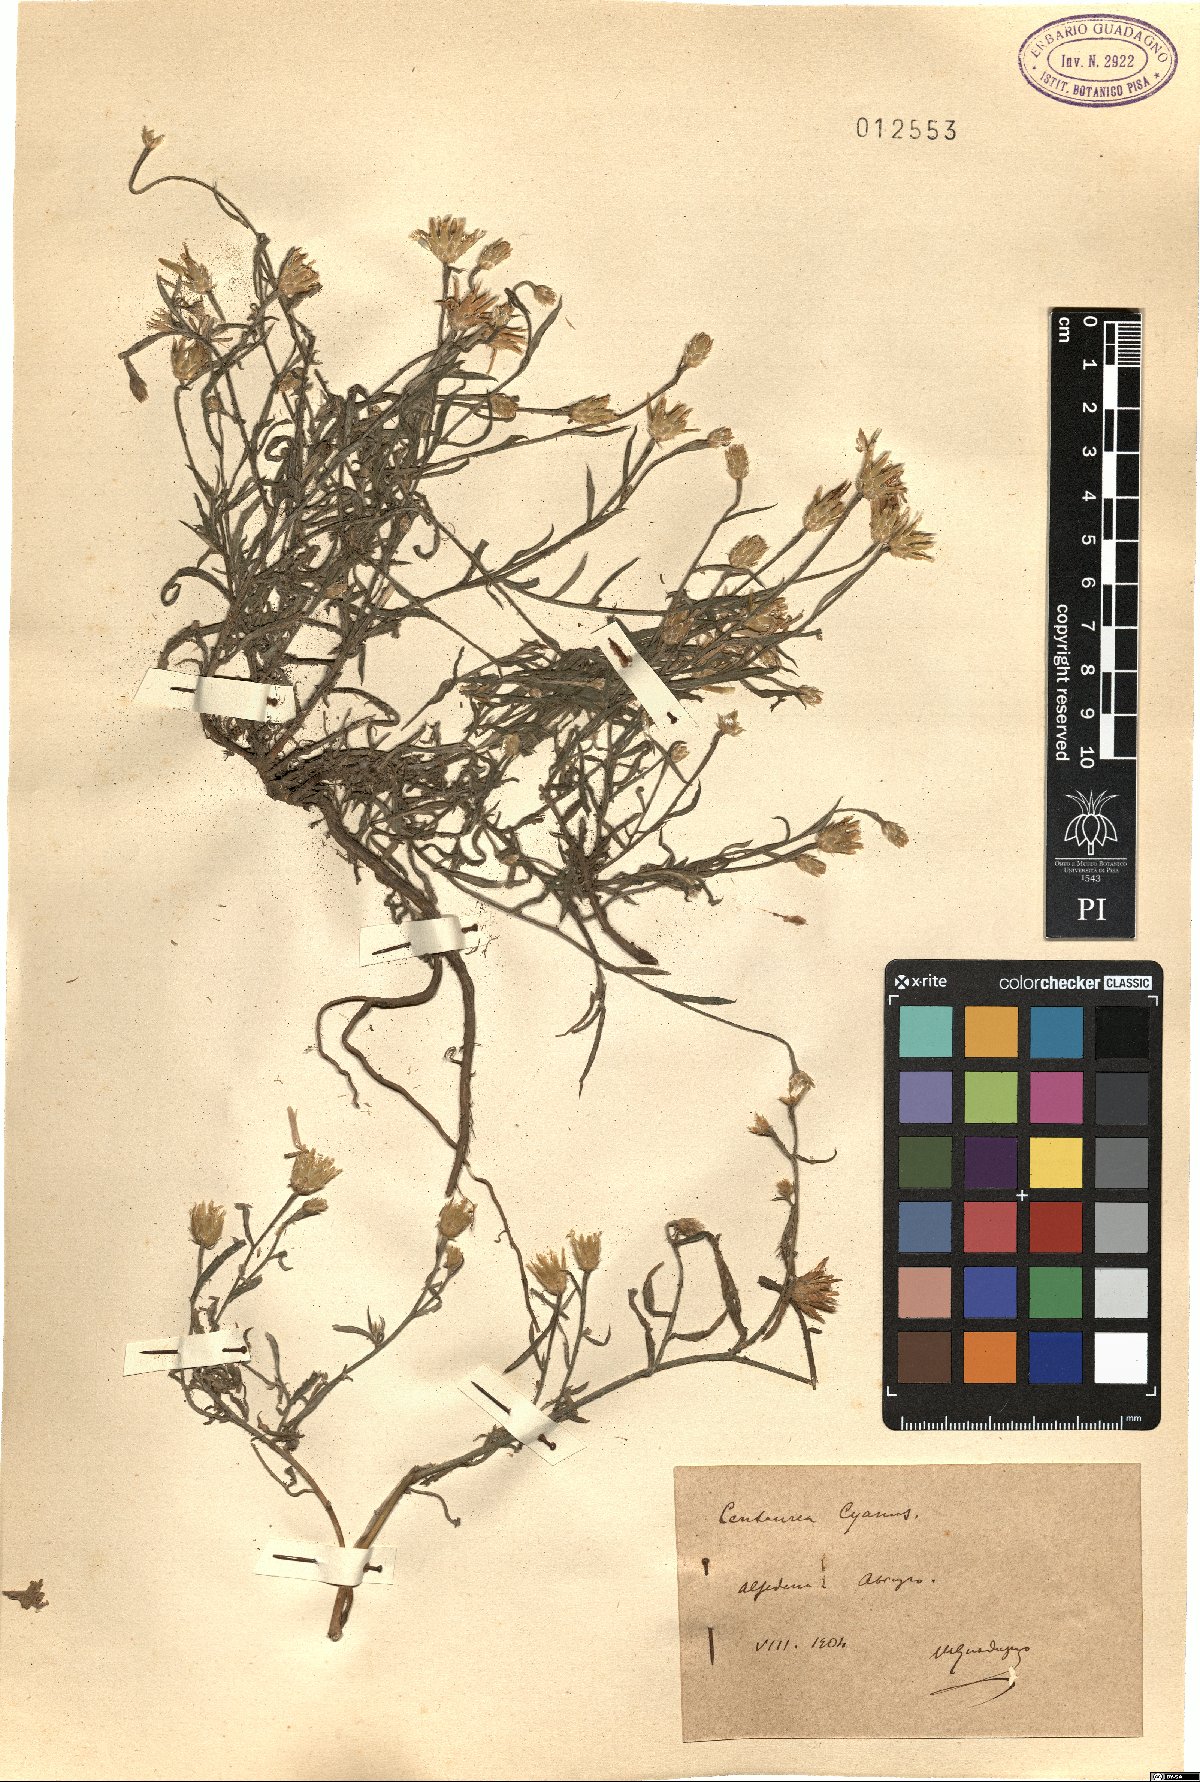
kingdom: Plantae
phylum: Tracheophyta
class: Magnoliopsida
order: Asterales
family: Asteraceae
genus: Centaurea
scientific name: Centaurea cyanus
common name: Cornflower
